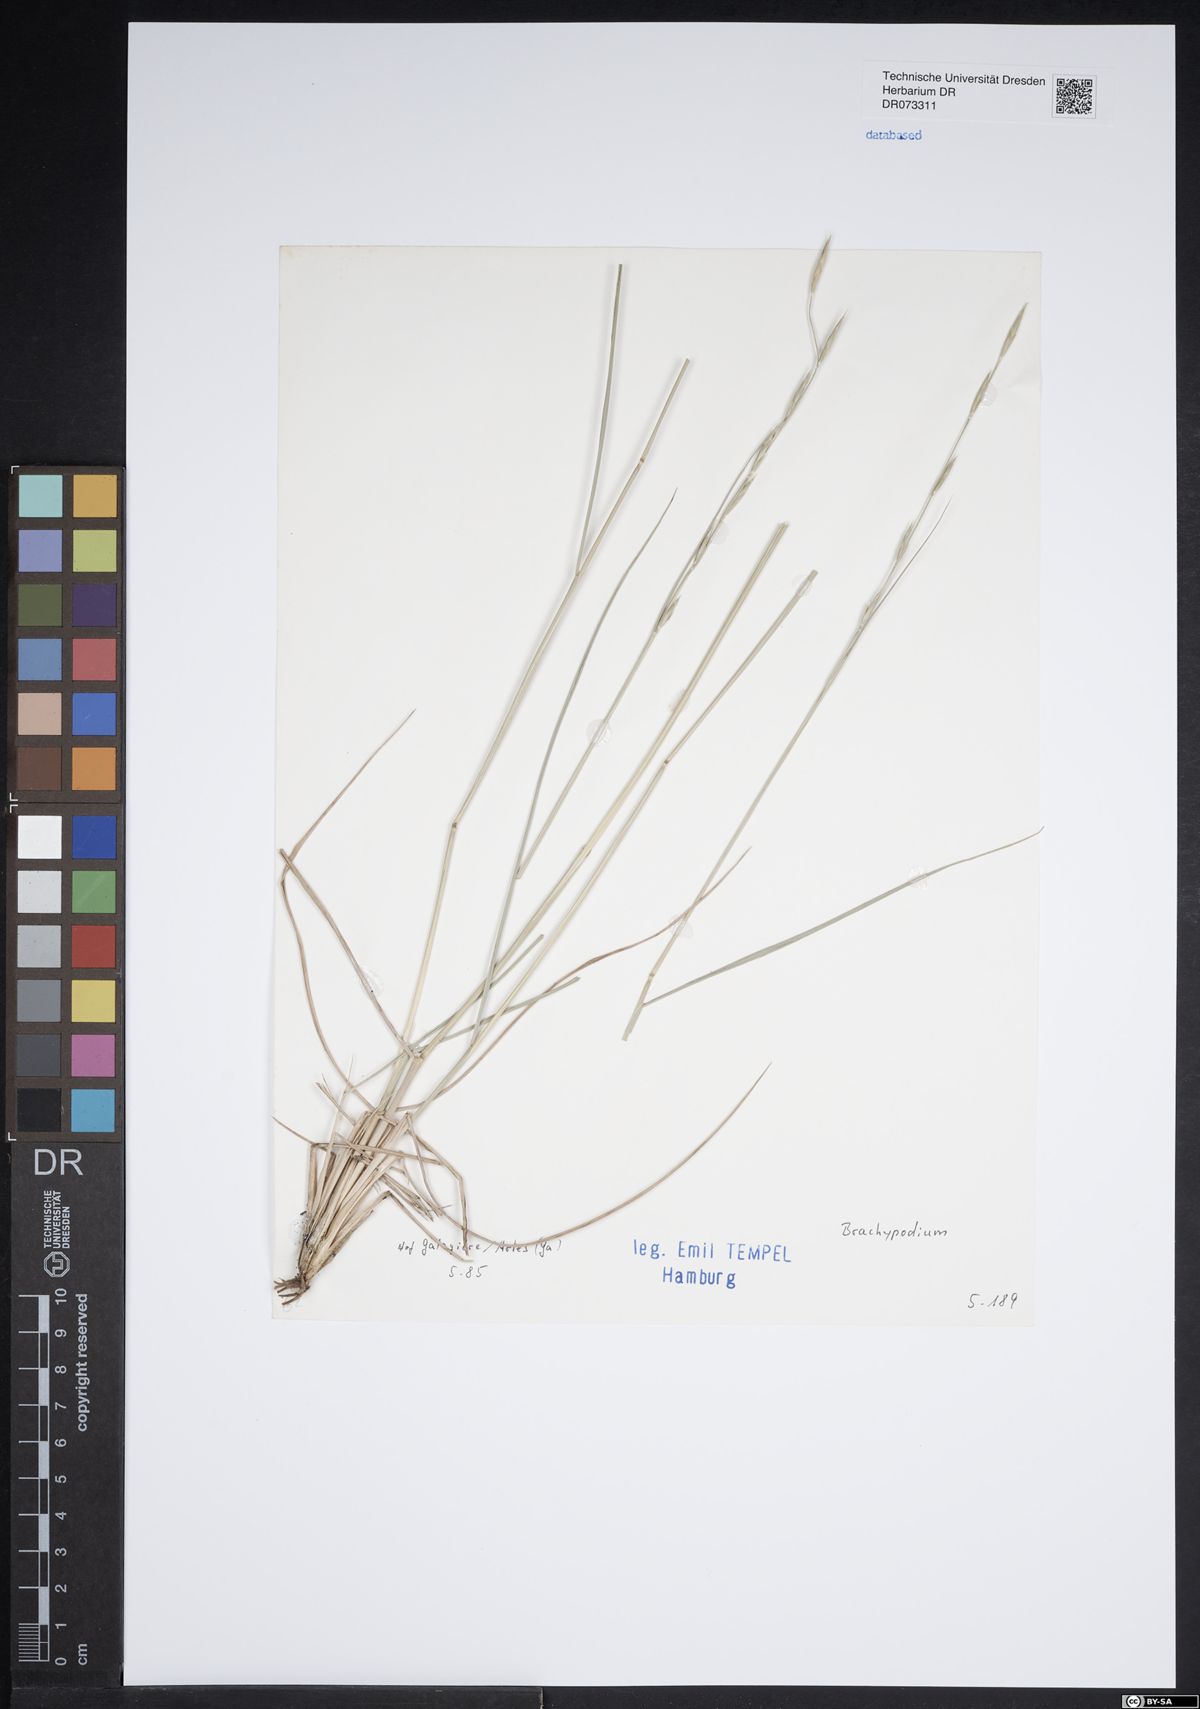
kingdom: Plantae
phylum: Tracheophyta
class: Liliopsida
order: Poales
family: Poaceae
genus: Brachypodium
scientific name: Brachypodium
